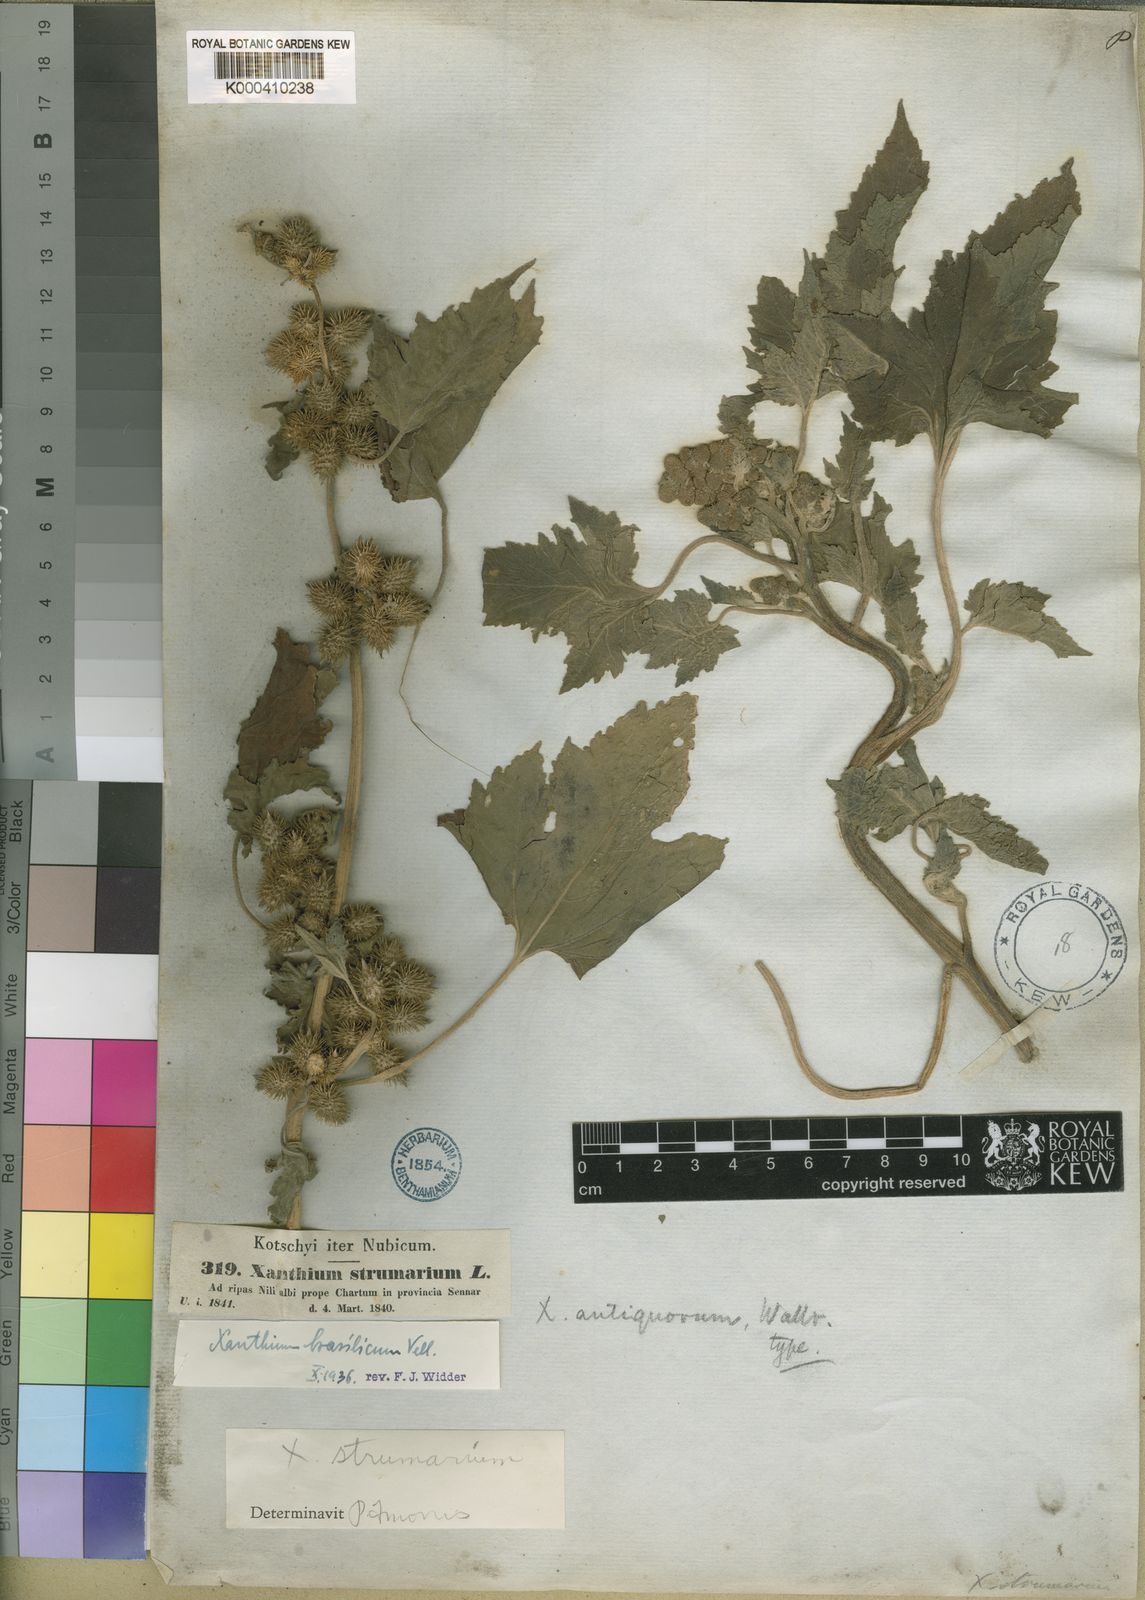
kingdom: Plantae
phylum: Tracheophyta
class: Magnoliopsida
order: Asterales
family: Asteraceae
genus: Xanthium
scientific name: Xanthium strumarium
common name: Rough cocklebur
